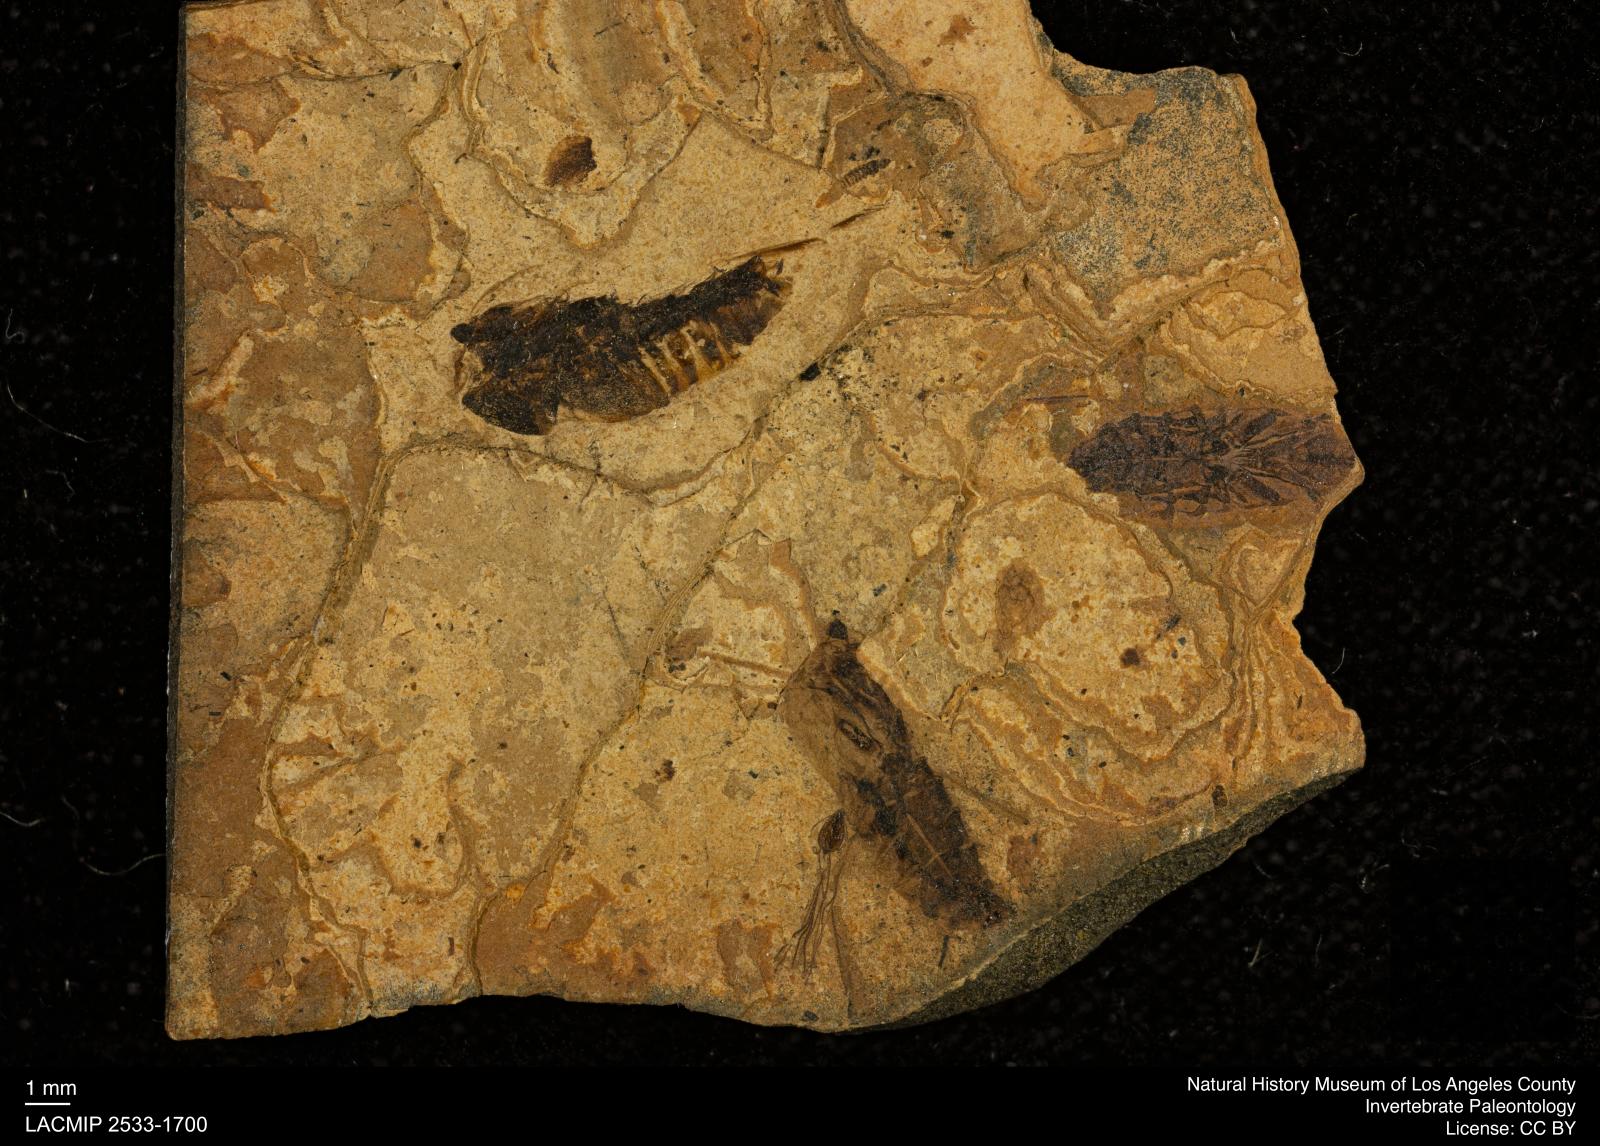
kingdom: Animalia
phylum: Arthropoda
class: Insecta
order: Hemiptera
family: Notonectidae
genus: Notonecta
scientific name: Notonecta
